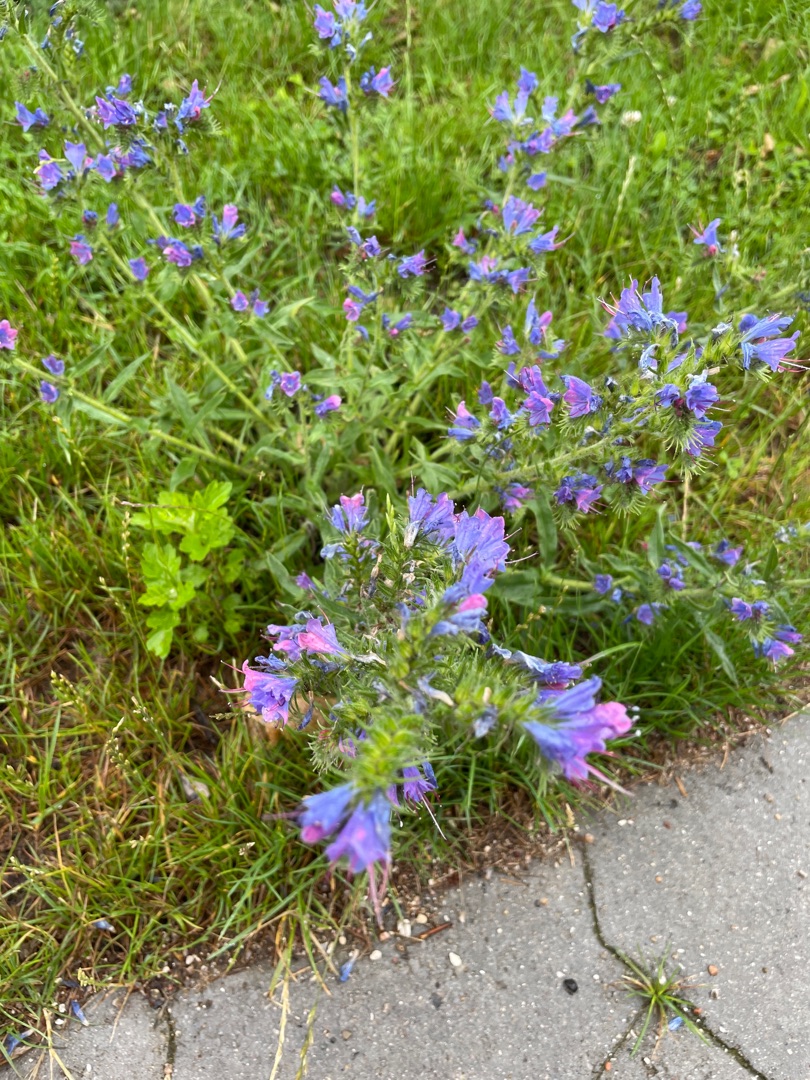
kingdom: Plantae
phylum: Tracheophyta
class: Magnoliopsida
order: Boraginales
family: Boraginaceae
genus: Echium
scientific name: Echium
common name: Slangehovedslægten
